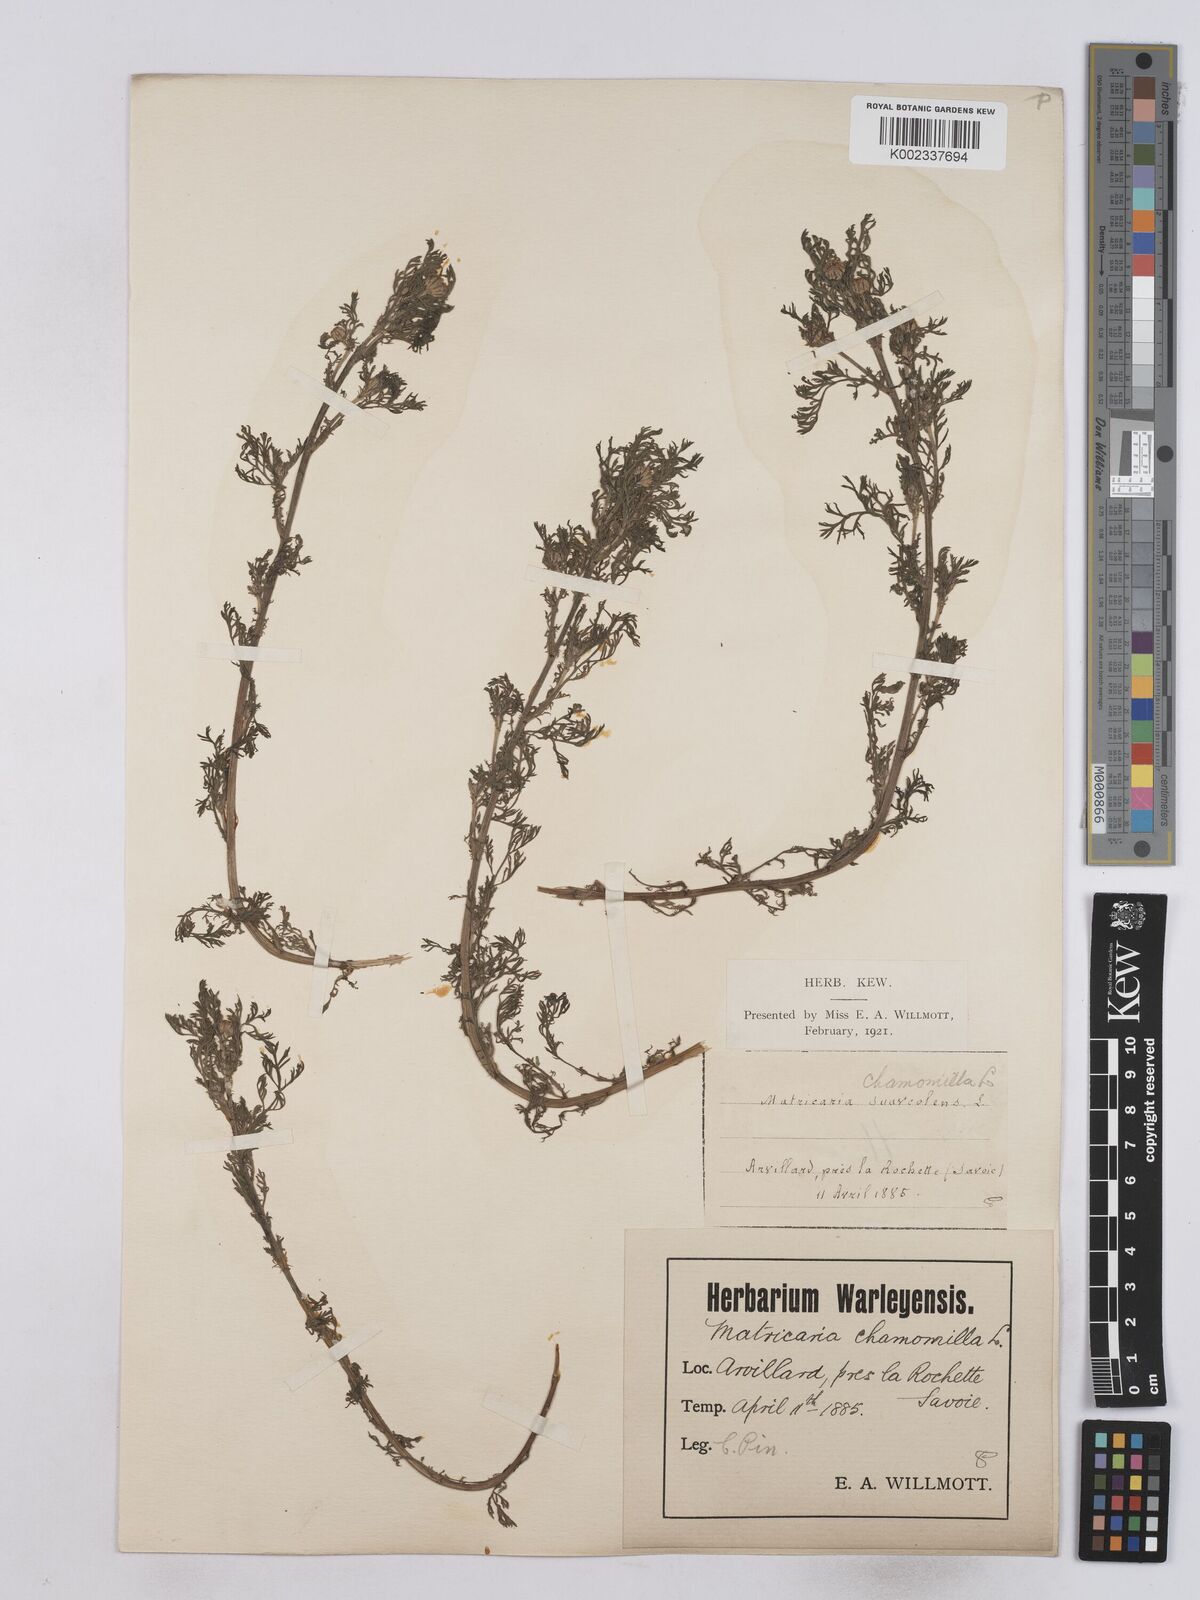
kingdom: Plantae
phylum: Tracheophyta
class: Magnoliopsida
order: Asterales
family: Asteraceae
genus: Matricaria
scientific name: Matricaria discoidea
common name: Disc mayweed
